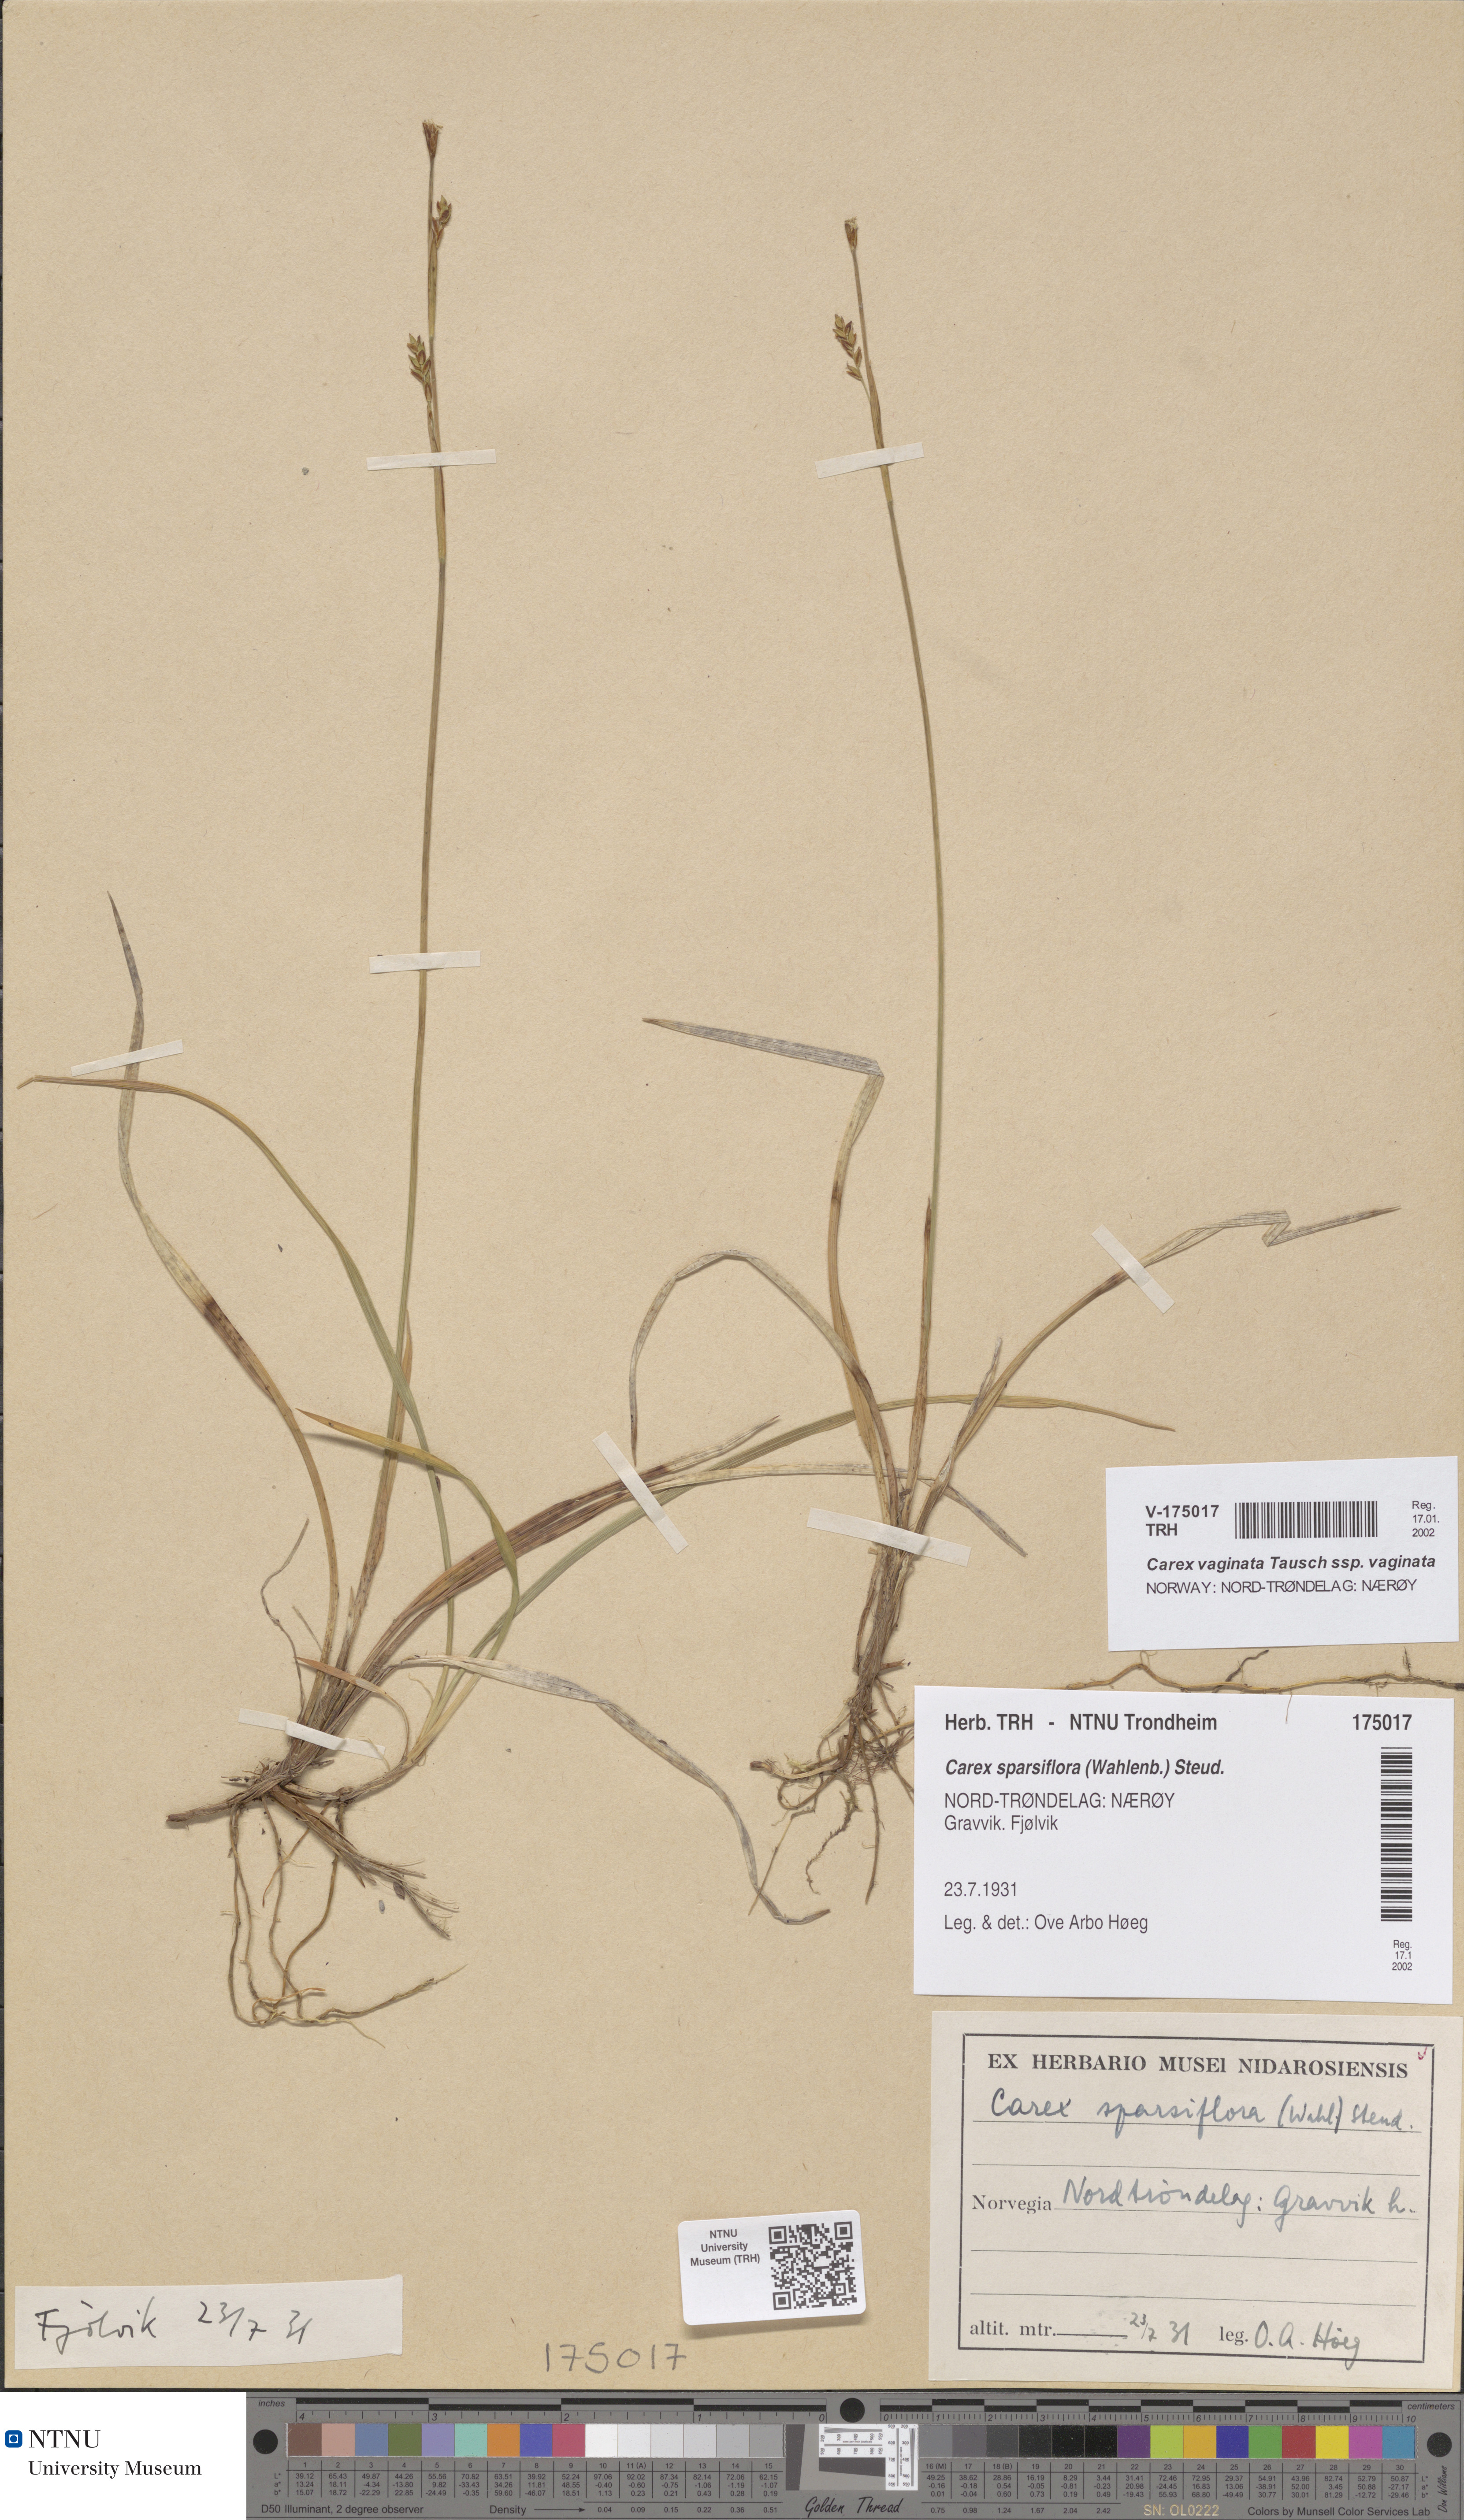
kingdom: Plantae
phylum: Tracheophyta
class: Liliopsida
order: Poales
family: Cyperaceae
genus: Carex
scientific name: Carex vaginata
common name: Sheathed sedge
